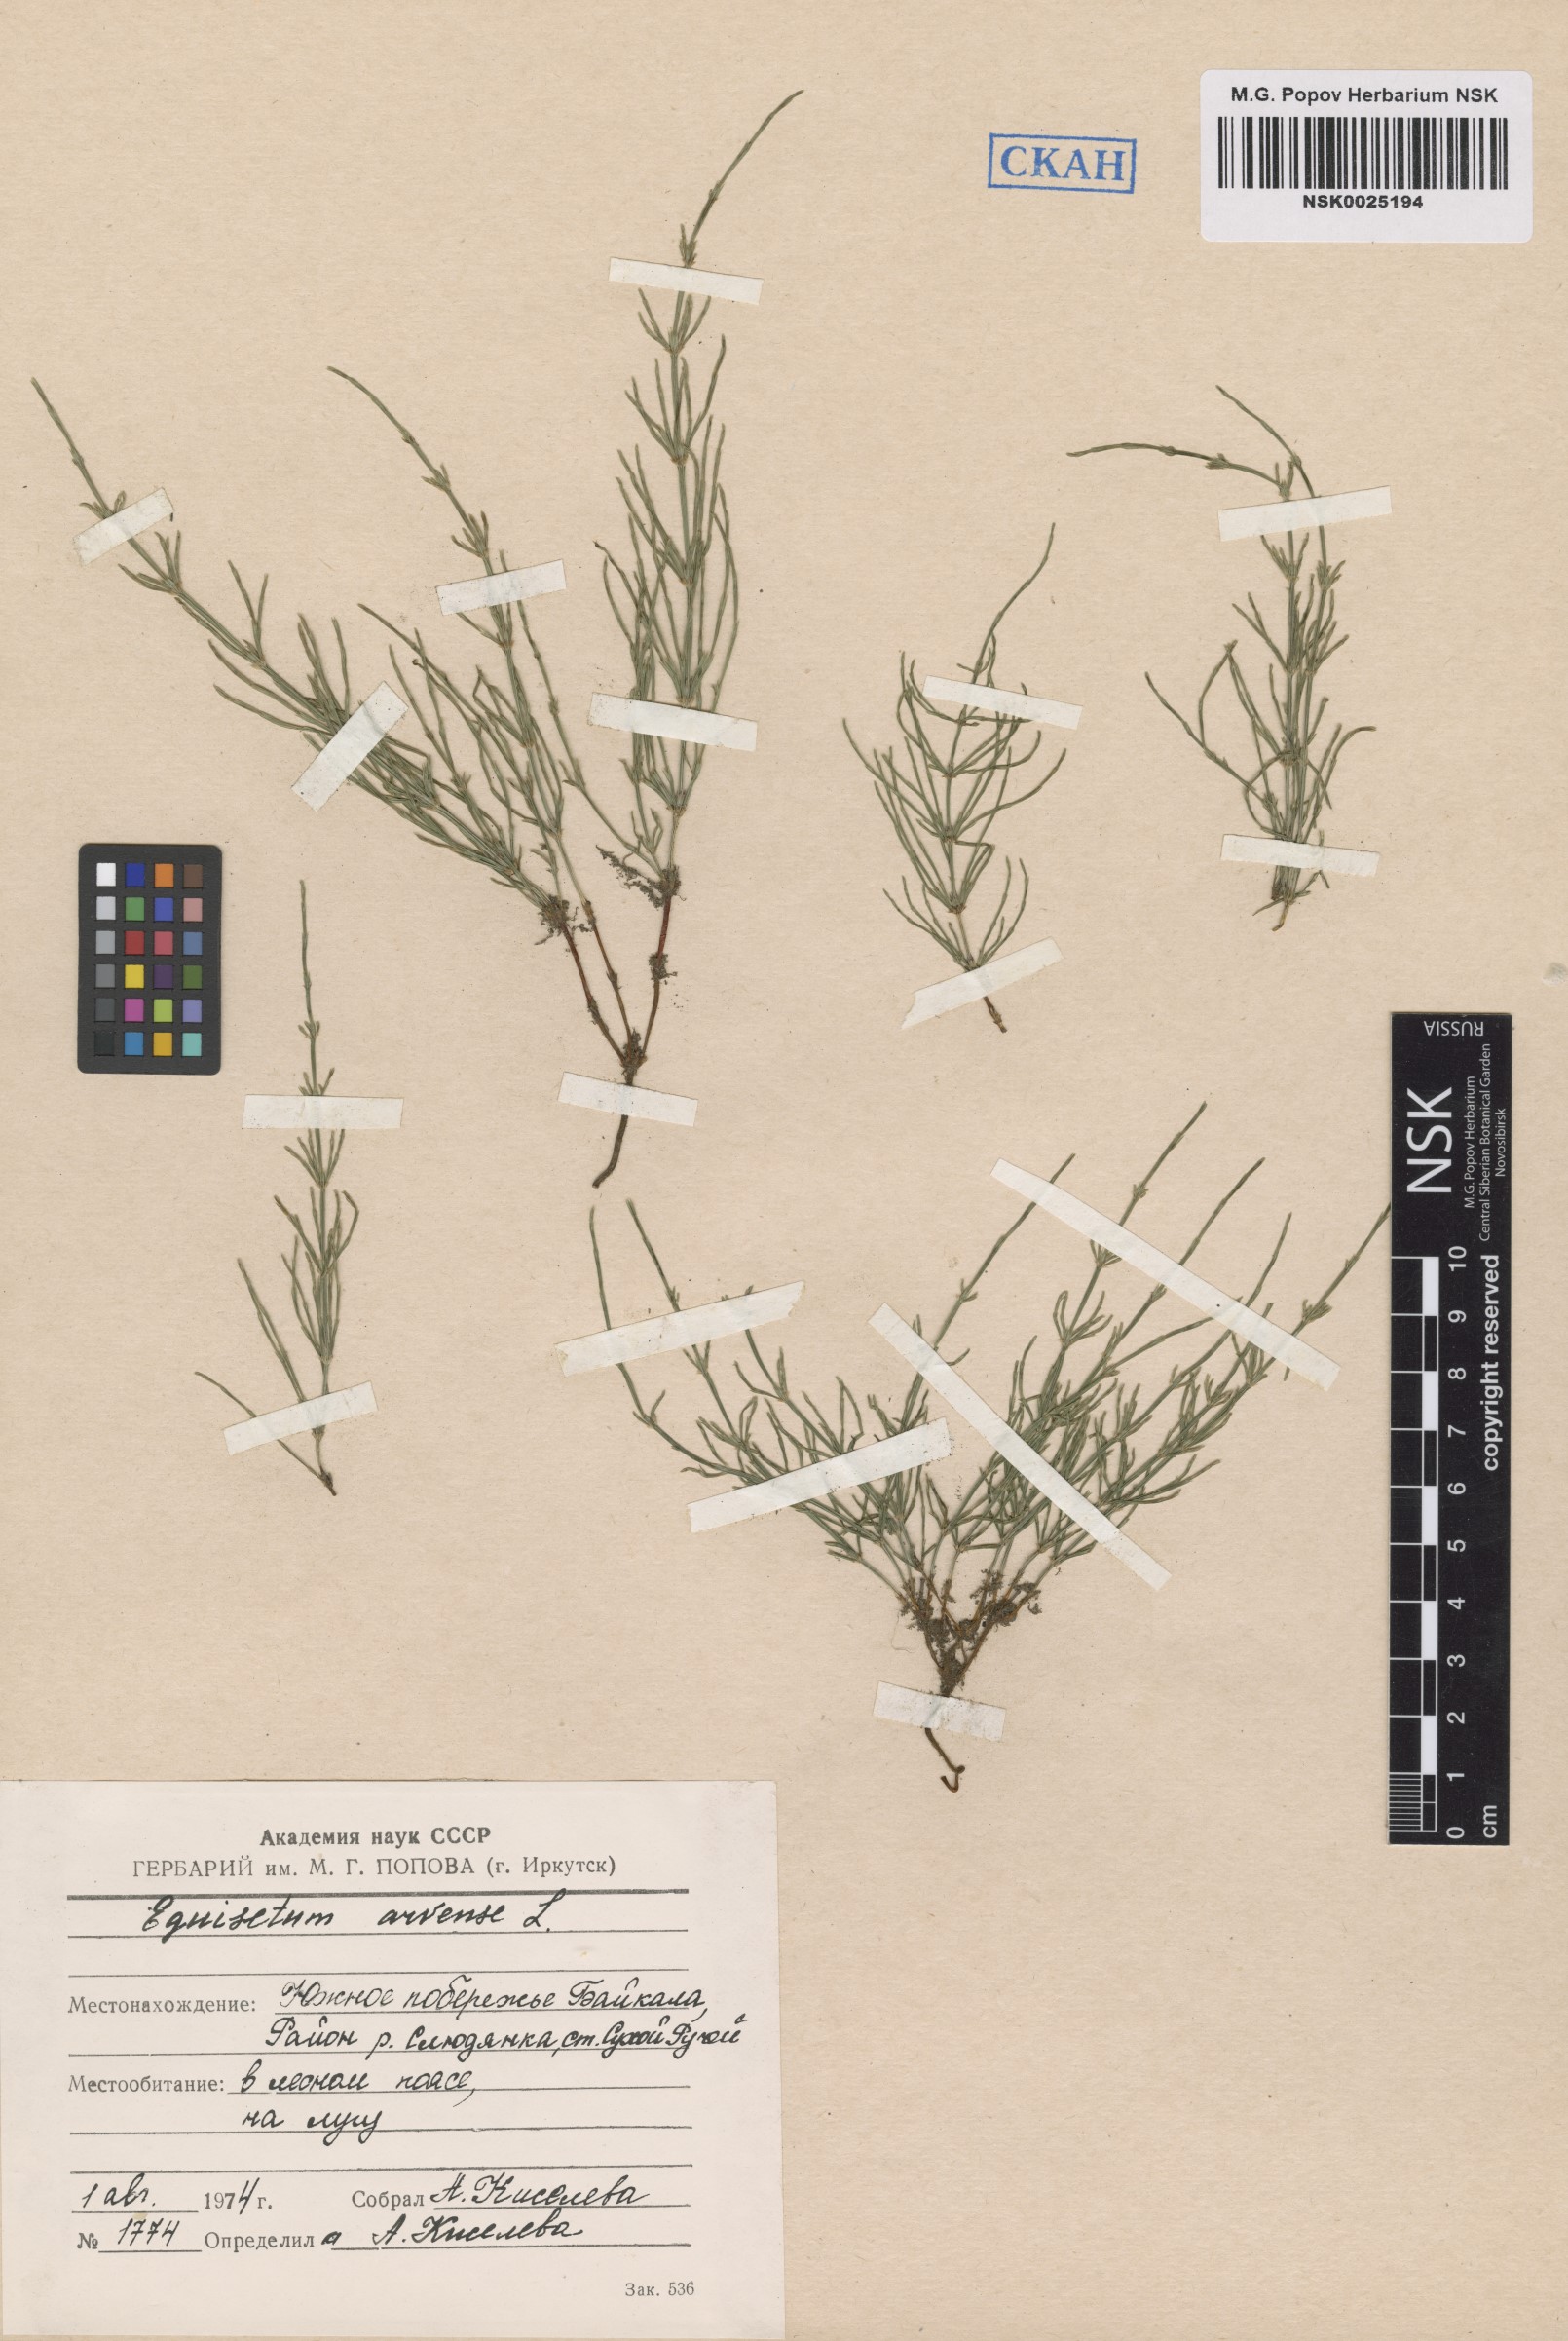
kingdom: Plantae
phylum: Tracheophyta
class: Polypodiopsida
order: Equisetales
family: Equisetaceae
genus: Equisetum
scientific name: Equisetum arvense
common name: Field horsetail
